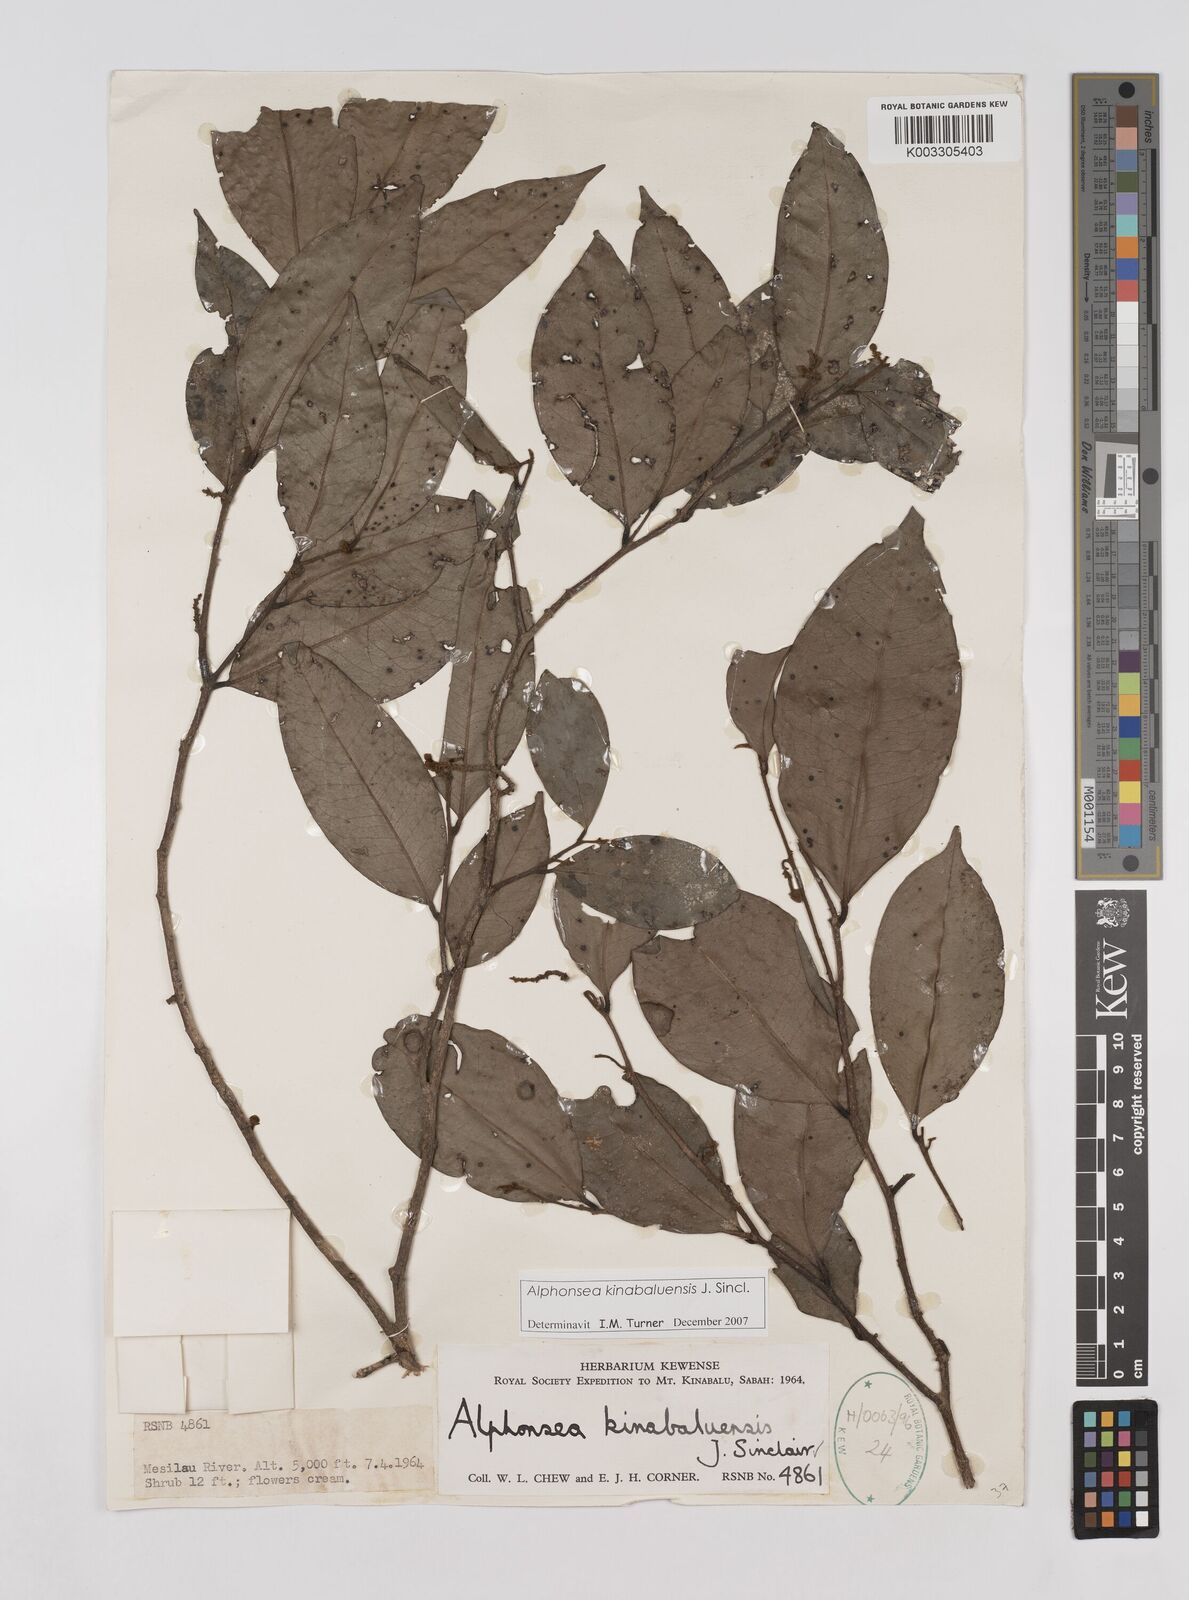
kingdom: Plantae
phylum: Tracheophyta
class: Magnoliopsida
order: Magnoliales
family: Annonaceae
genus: Alphonsea
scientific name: Alphonsea kinabaluensis
